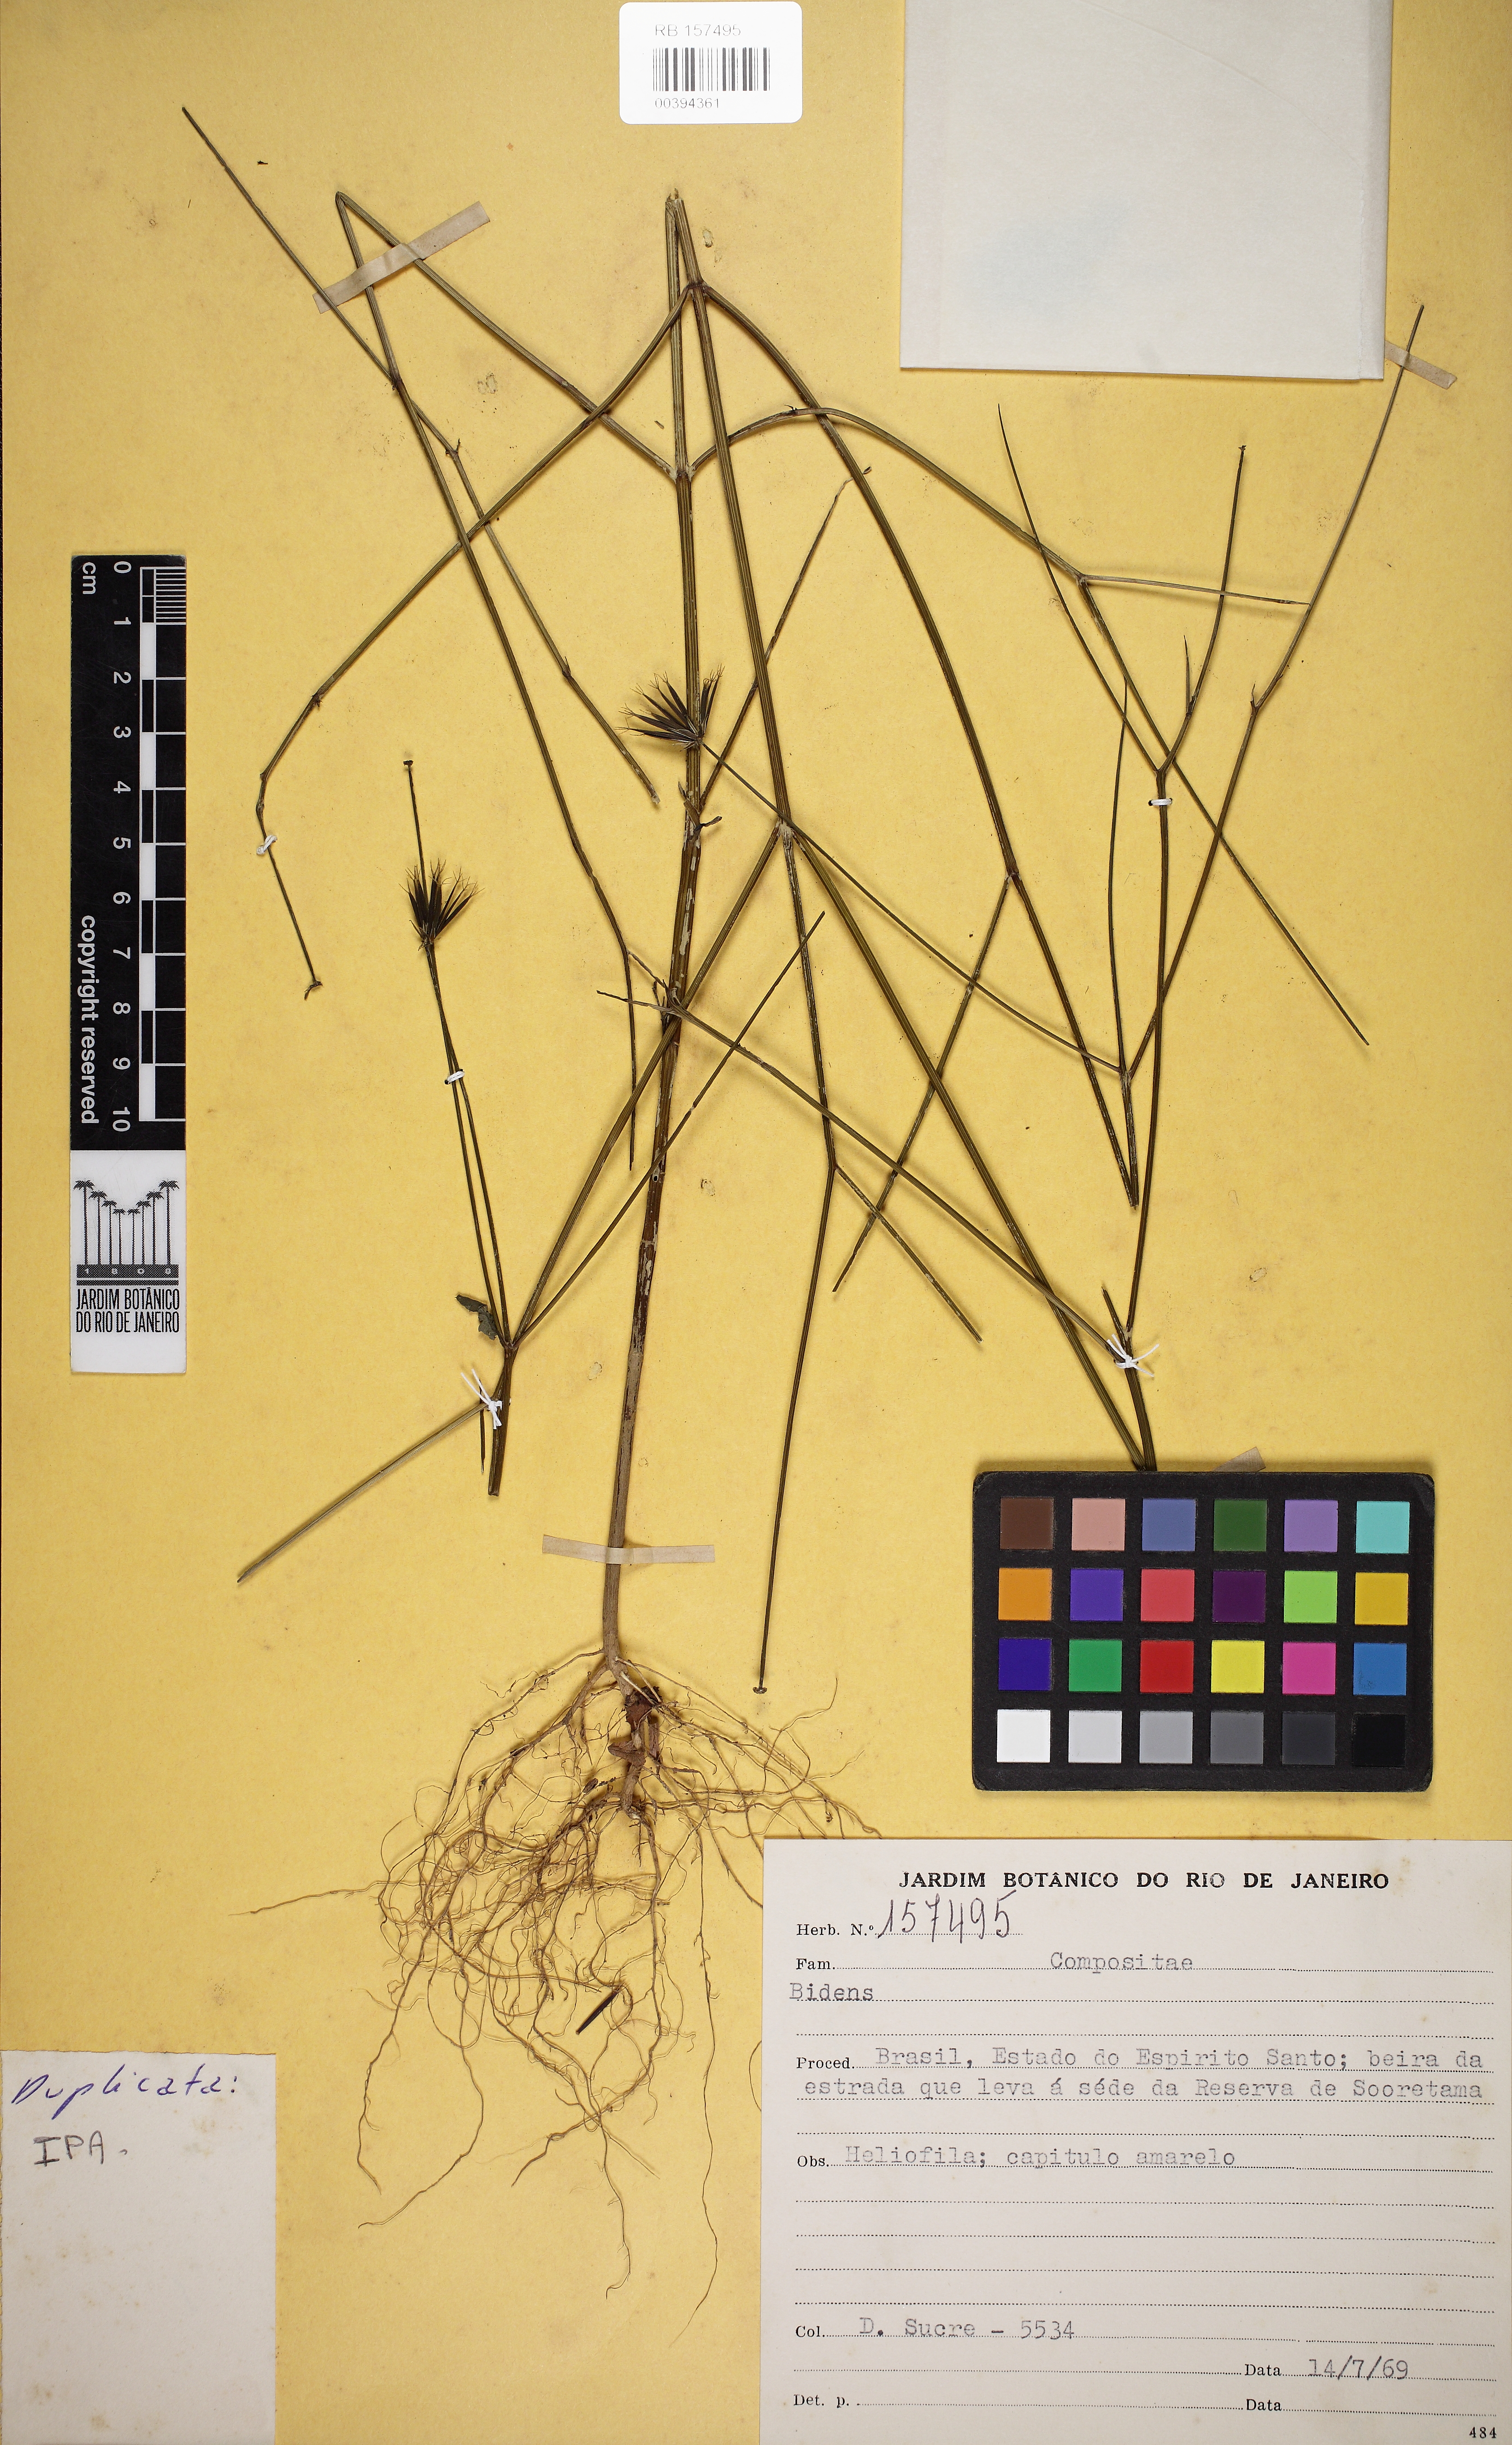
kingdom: Plantae
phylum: Tracheophyta
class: Magnoliopsida
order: Asterales
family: Asteraceae
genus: Bidens
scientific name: Bidens
